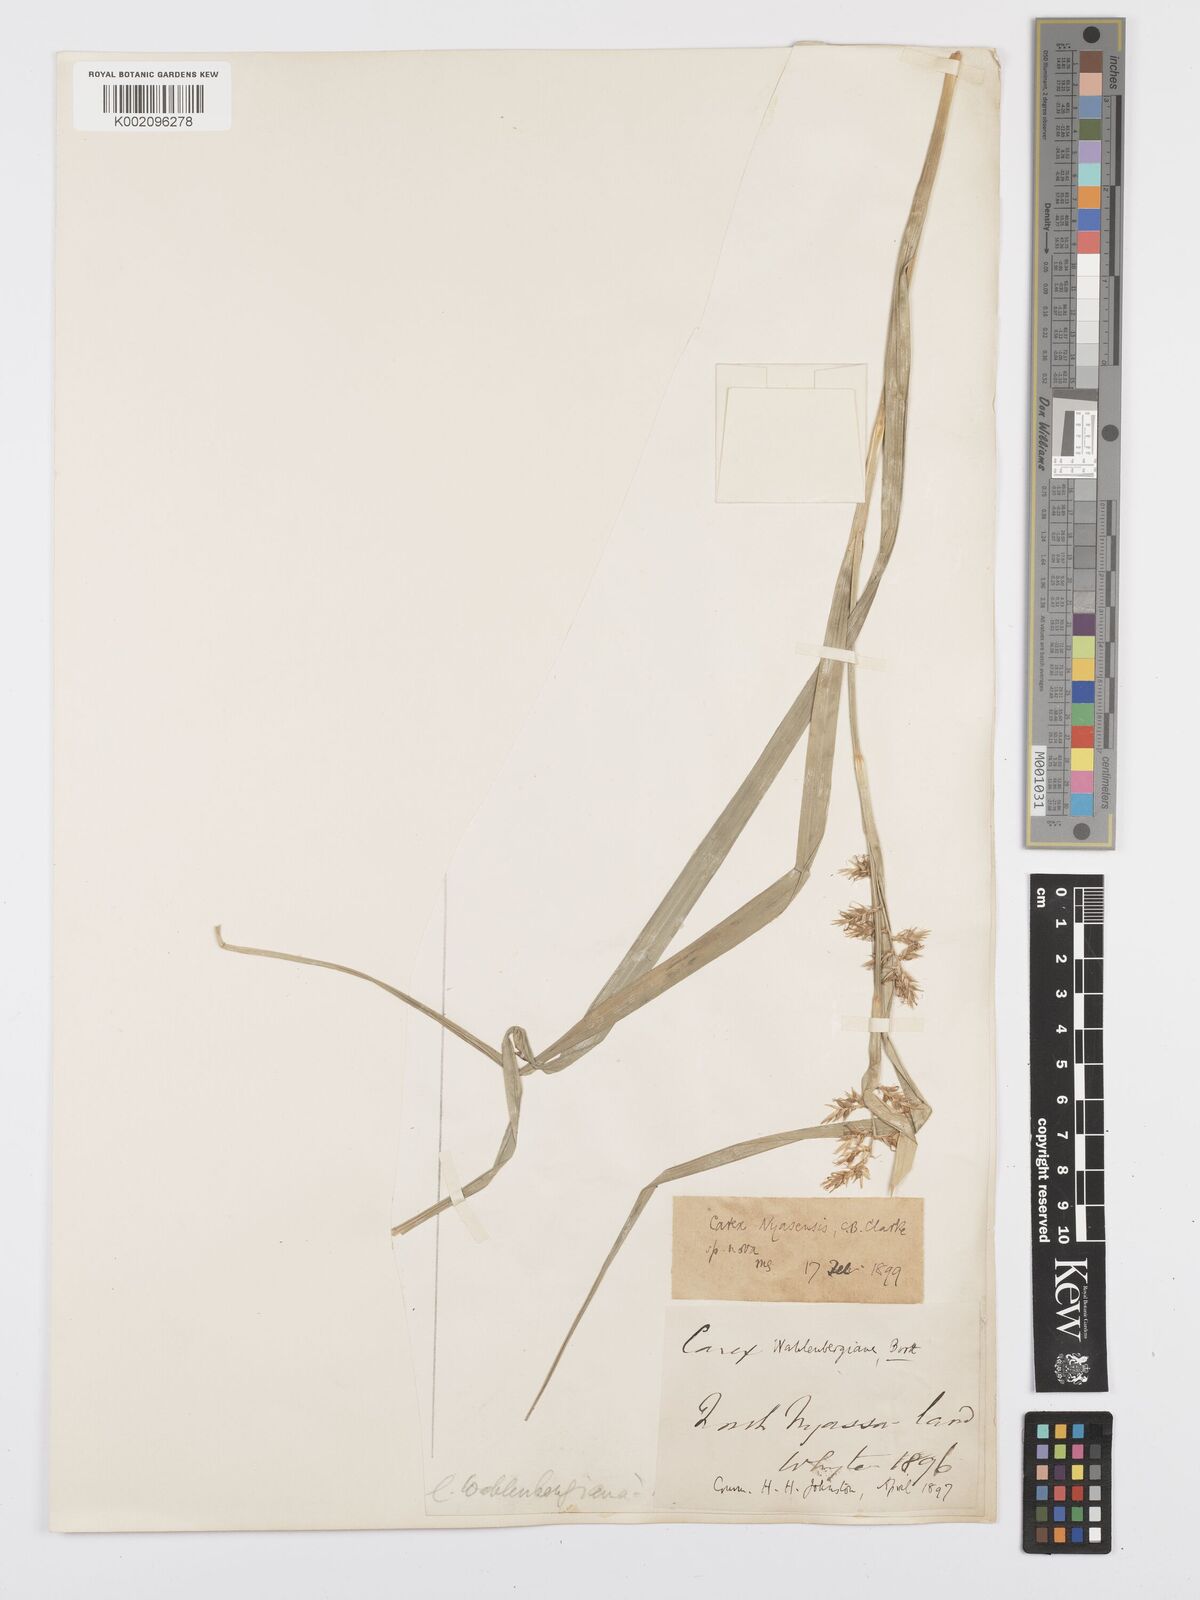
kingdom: Plantae
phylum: Tracheophyta
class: Liliopsida
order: Poales
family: Cyperaceae
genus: Carex
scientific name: Carex spicatopaniculata
